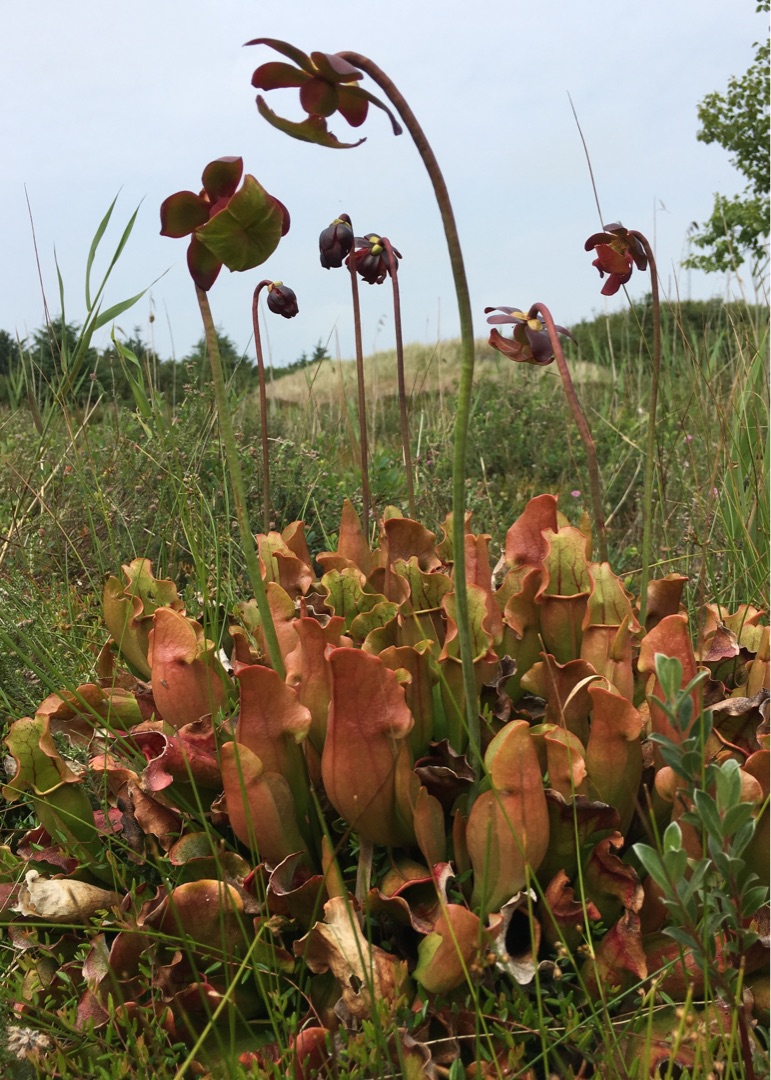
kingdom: Plantae
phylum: Tracheophyta
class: Magnoliopsida
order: Ericales
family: Sarraceniaceae
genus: Sarracenia
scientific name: Sarracenia purpurea
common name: Trompetblad
